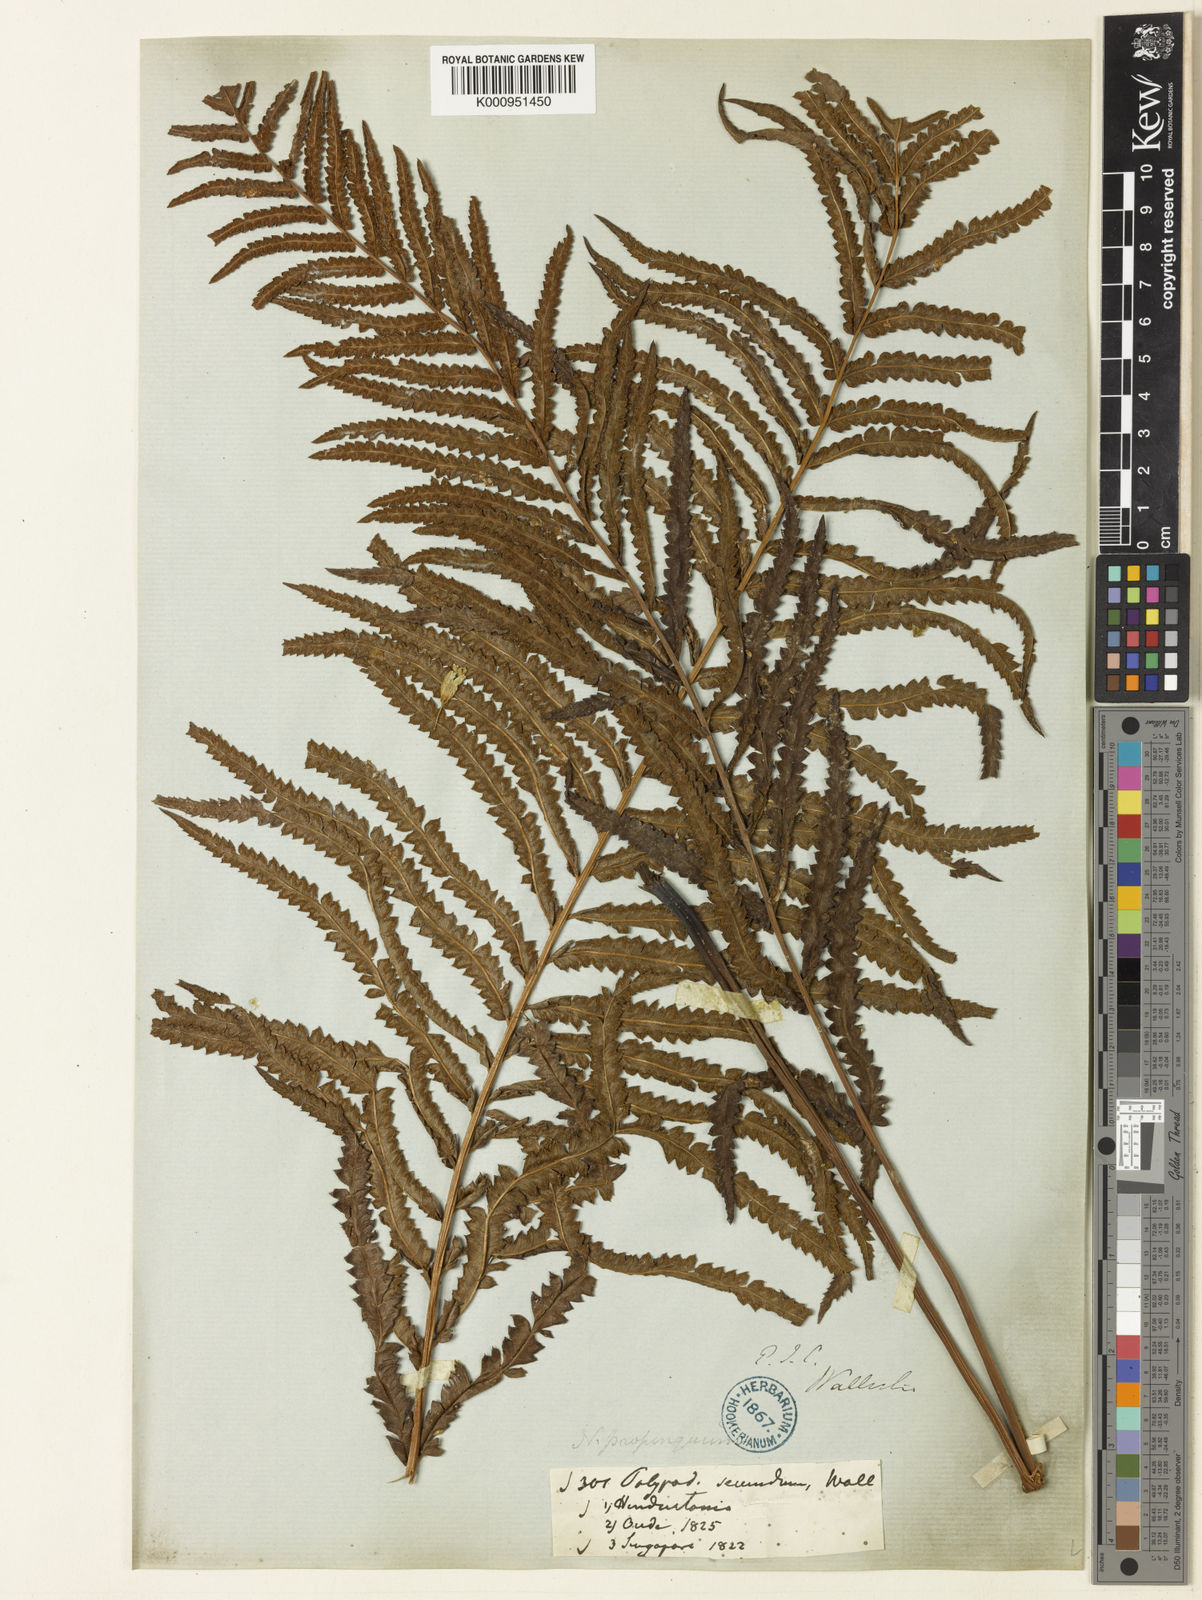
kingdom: Plantae
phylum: Tracheophyta
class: Polypodiopsida
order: Polypodiales
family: Thelypteridaceae
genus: Cyclosorus
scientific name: Cyclosorus interruptus
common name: Neke fern
